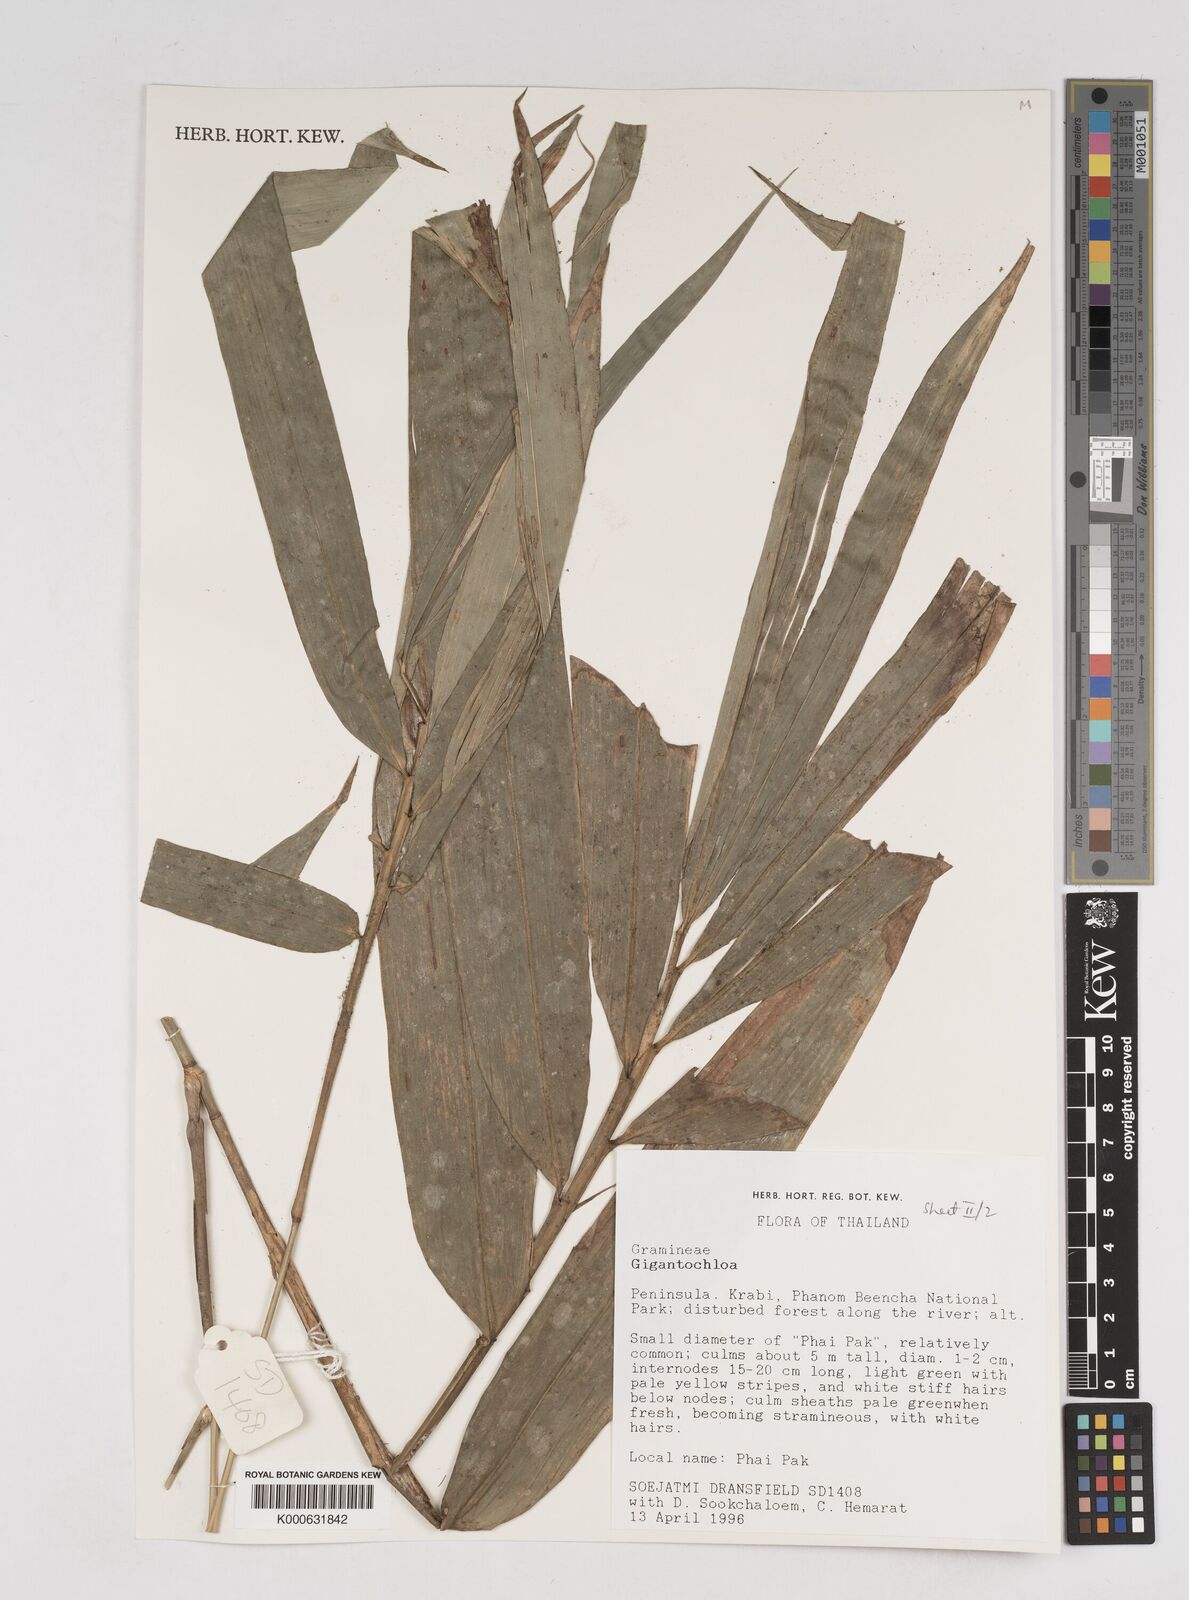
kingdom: Plantae
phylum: Tracheophyta
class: Liliopsida
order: Poales
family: Poaceae
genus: Gigantochloa
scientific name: Gigantochloa
